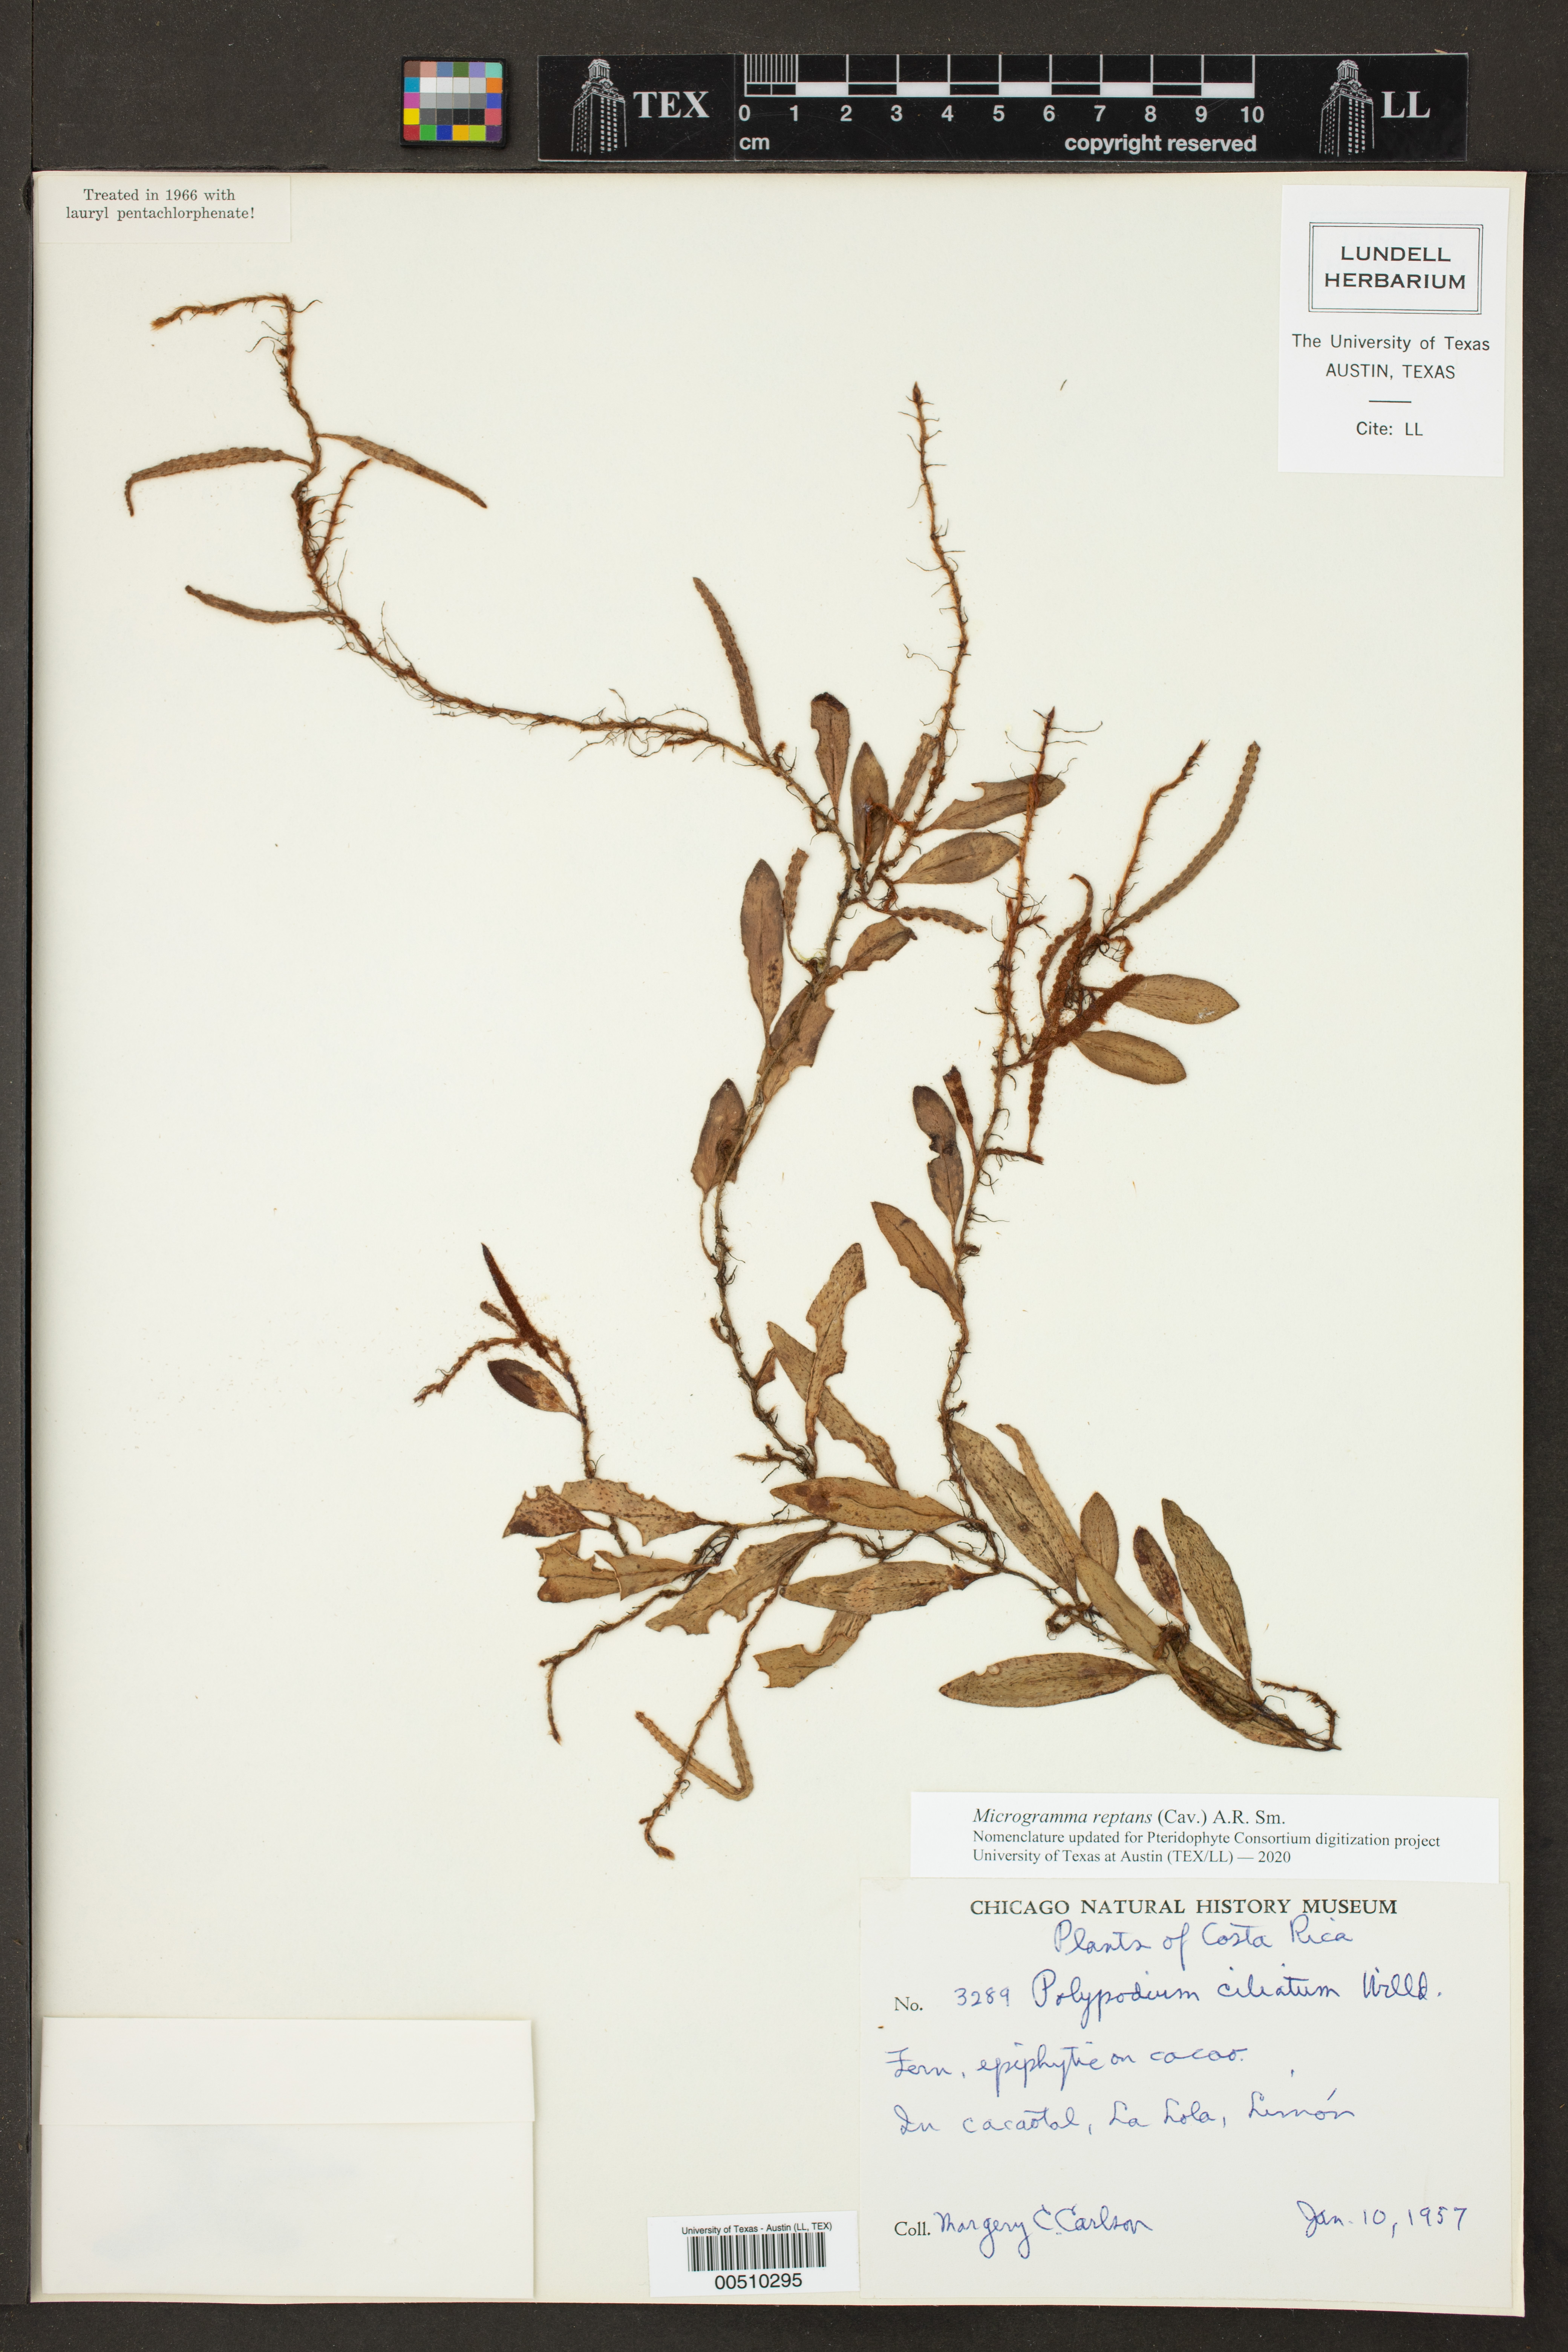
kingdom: Plantae
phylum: Tracheophyta
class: Polypodiopsida
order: Polypodiales
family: Polypodiaceae
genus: Microgramma
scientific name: Microgramma reptans
